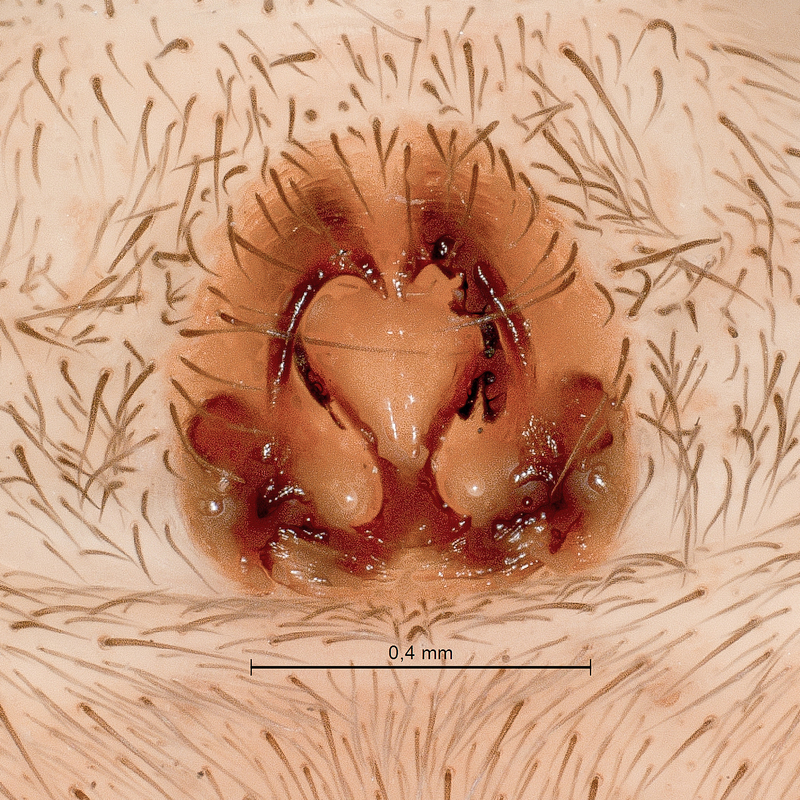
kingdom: Animalia
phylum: Arthropoda
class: Arachnida
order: Araneae
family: Lycosidae
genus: Trochosa
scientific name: Trochosa terricola
